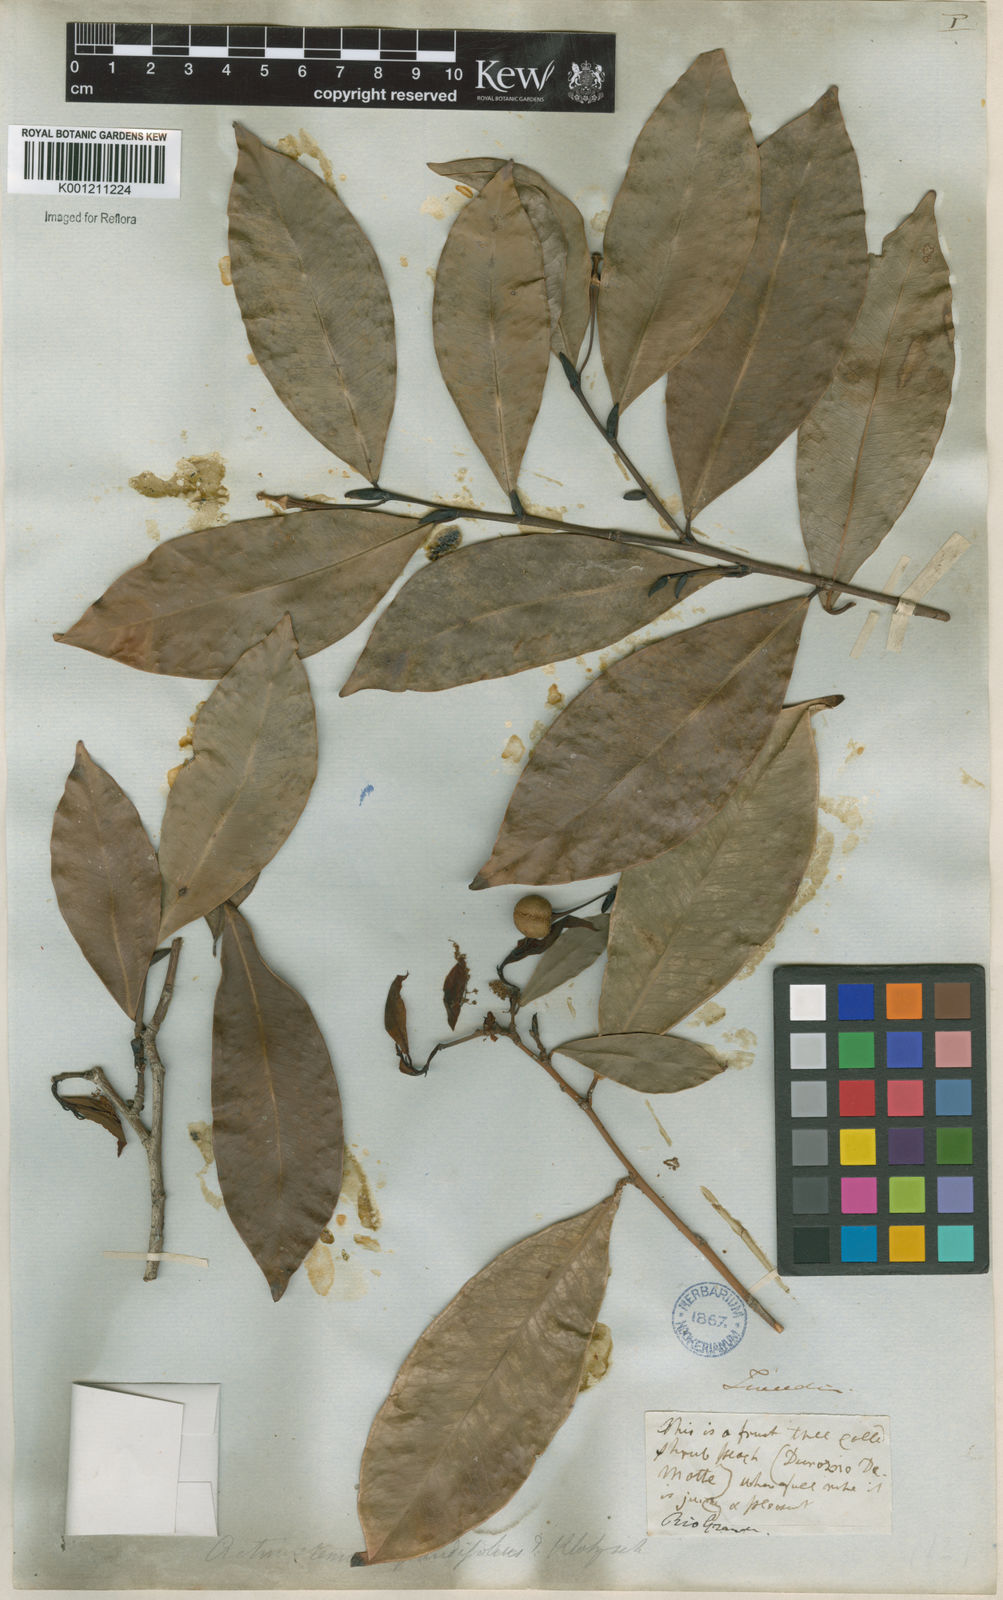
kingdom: Plantae
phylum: Tracheophyta
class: Magnoliopsida
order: Malpighiales
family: Euphorbiaceae
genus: Actinostemon
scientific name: Actinostemon
